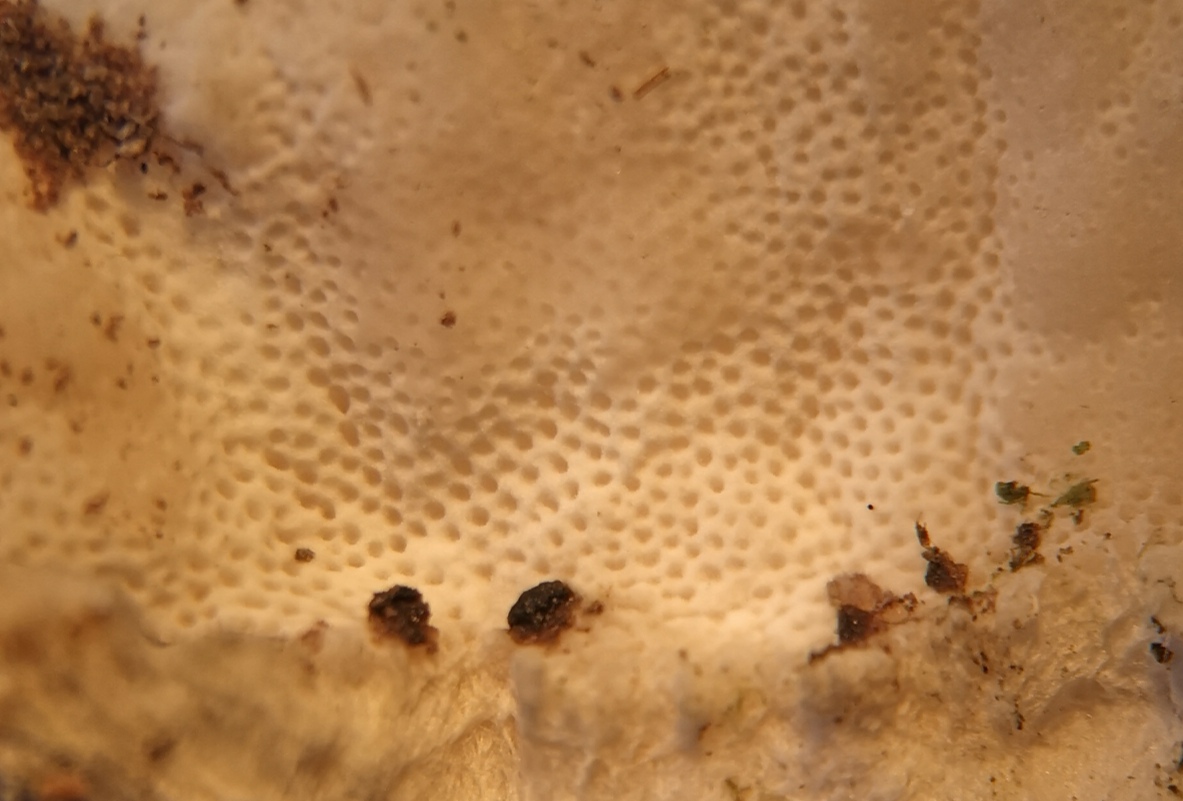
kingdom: Fungi
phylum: Basidiomycota
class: Agaricomycetes
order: Polyporales
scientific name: Polyporales
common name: poresvampordenen
